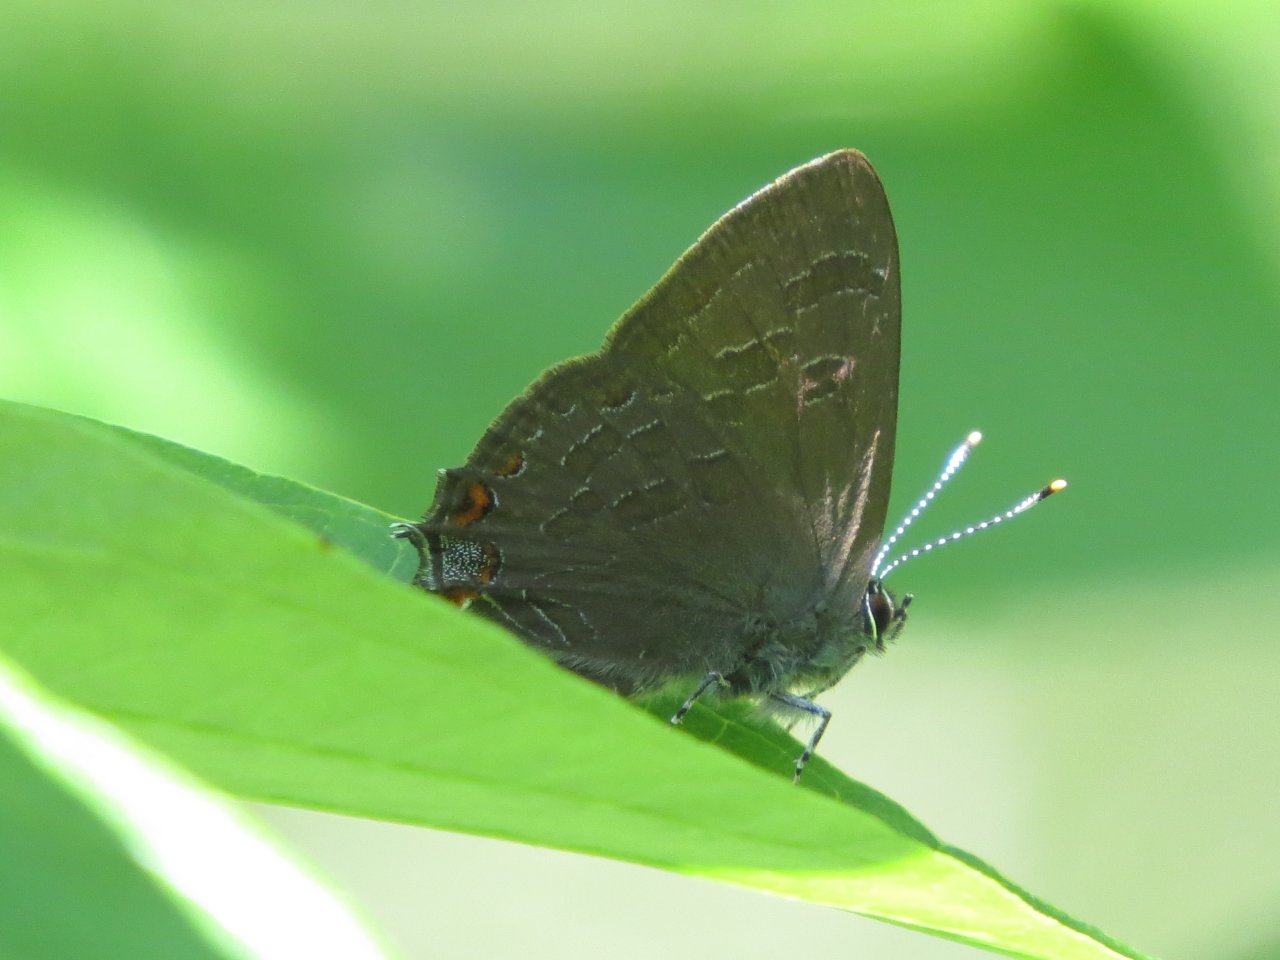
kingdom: Animalia
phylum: Arthropoda
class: Insecta
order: Lepidoptera
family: Lycaenidae
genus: Satyrium
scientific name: Satyrium liparops
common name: Striped Hairstreak
